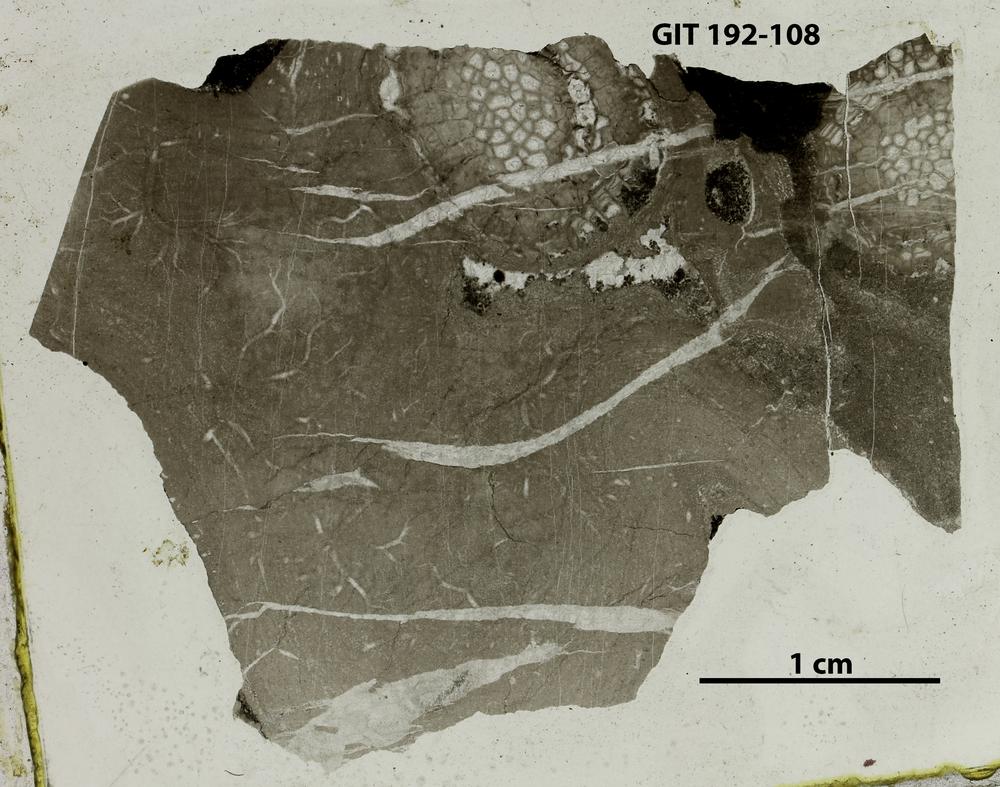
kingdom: Animalia
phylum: Porifera
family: Densastromatidae
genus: Araneosustroma
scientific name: Araneosustroma
